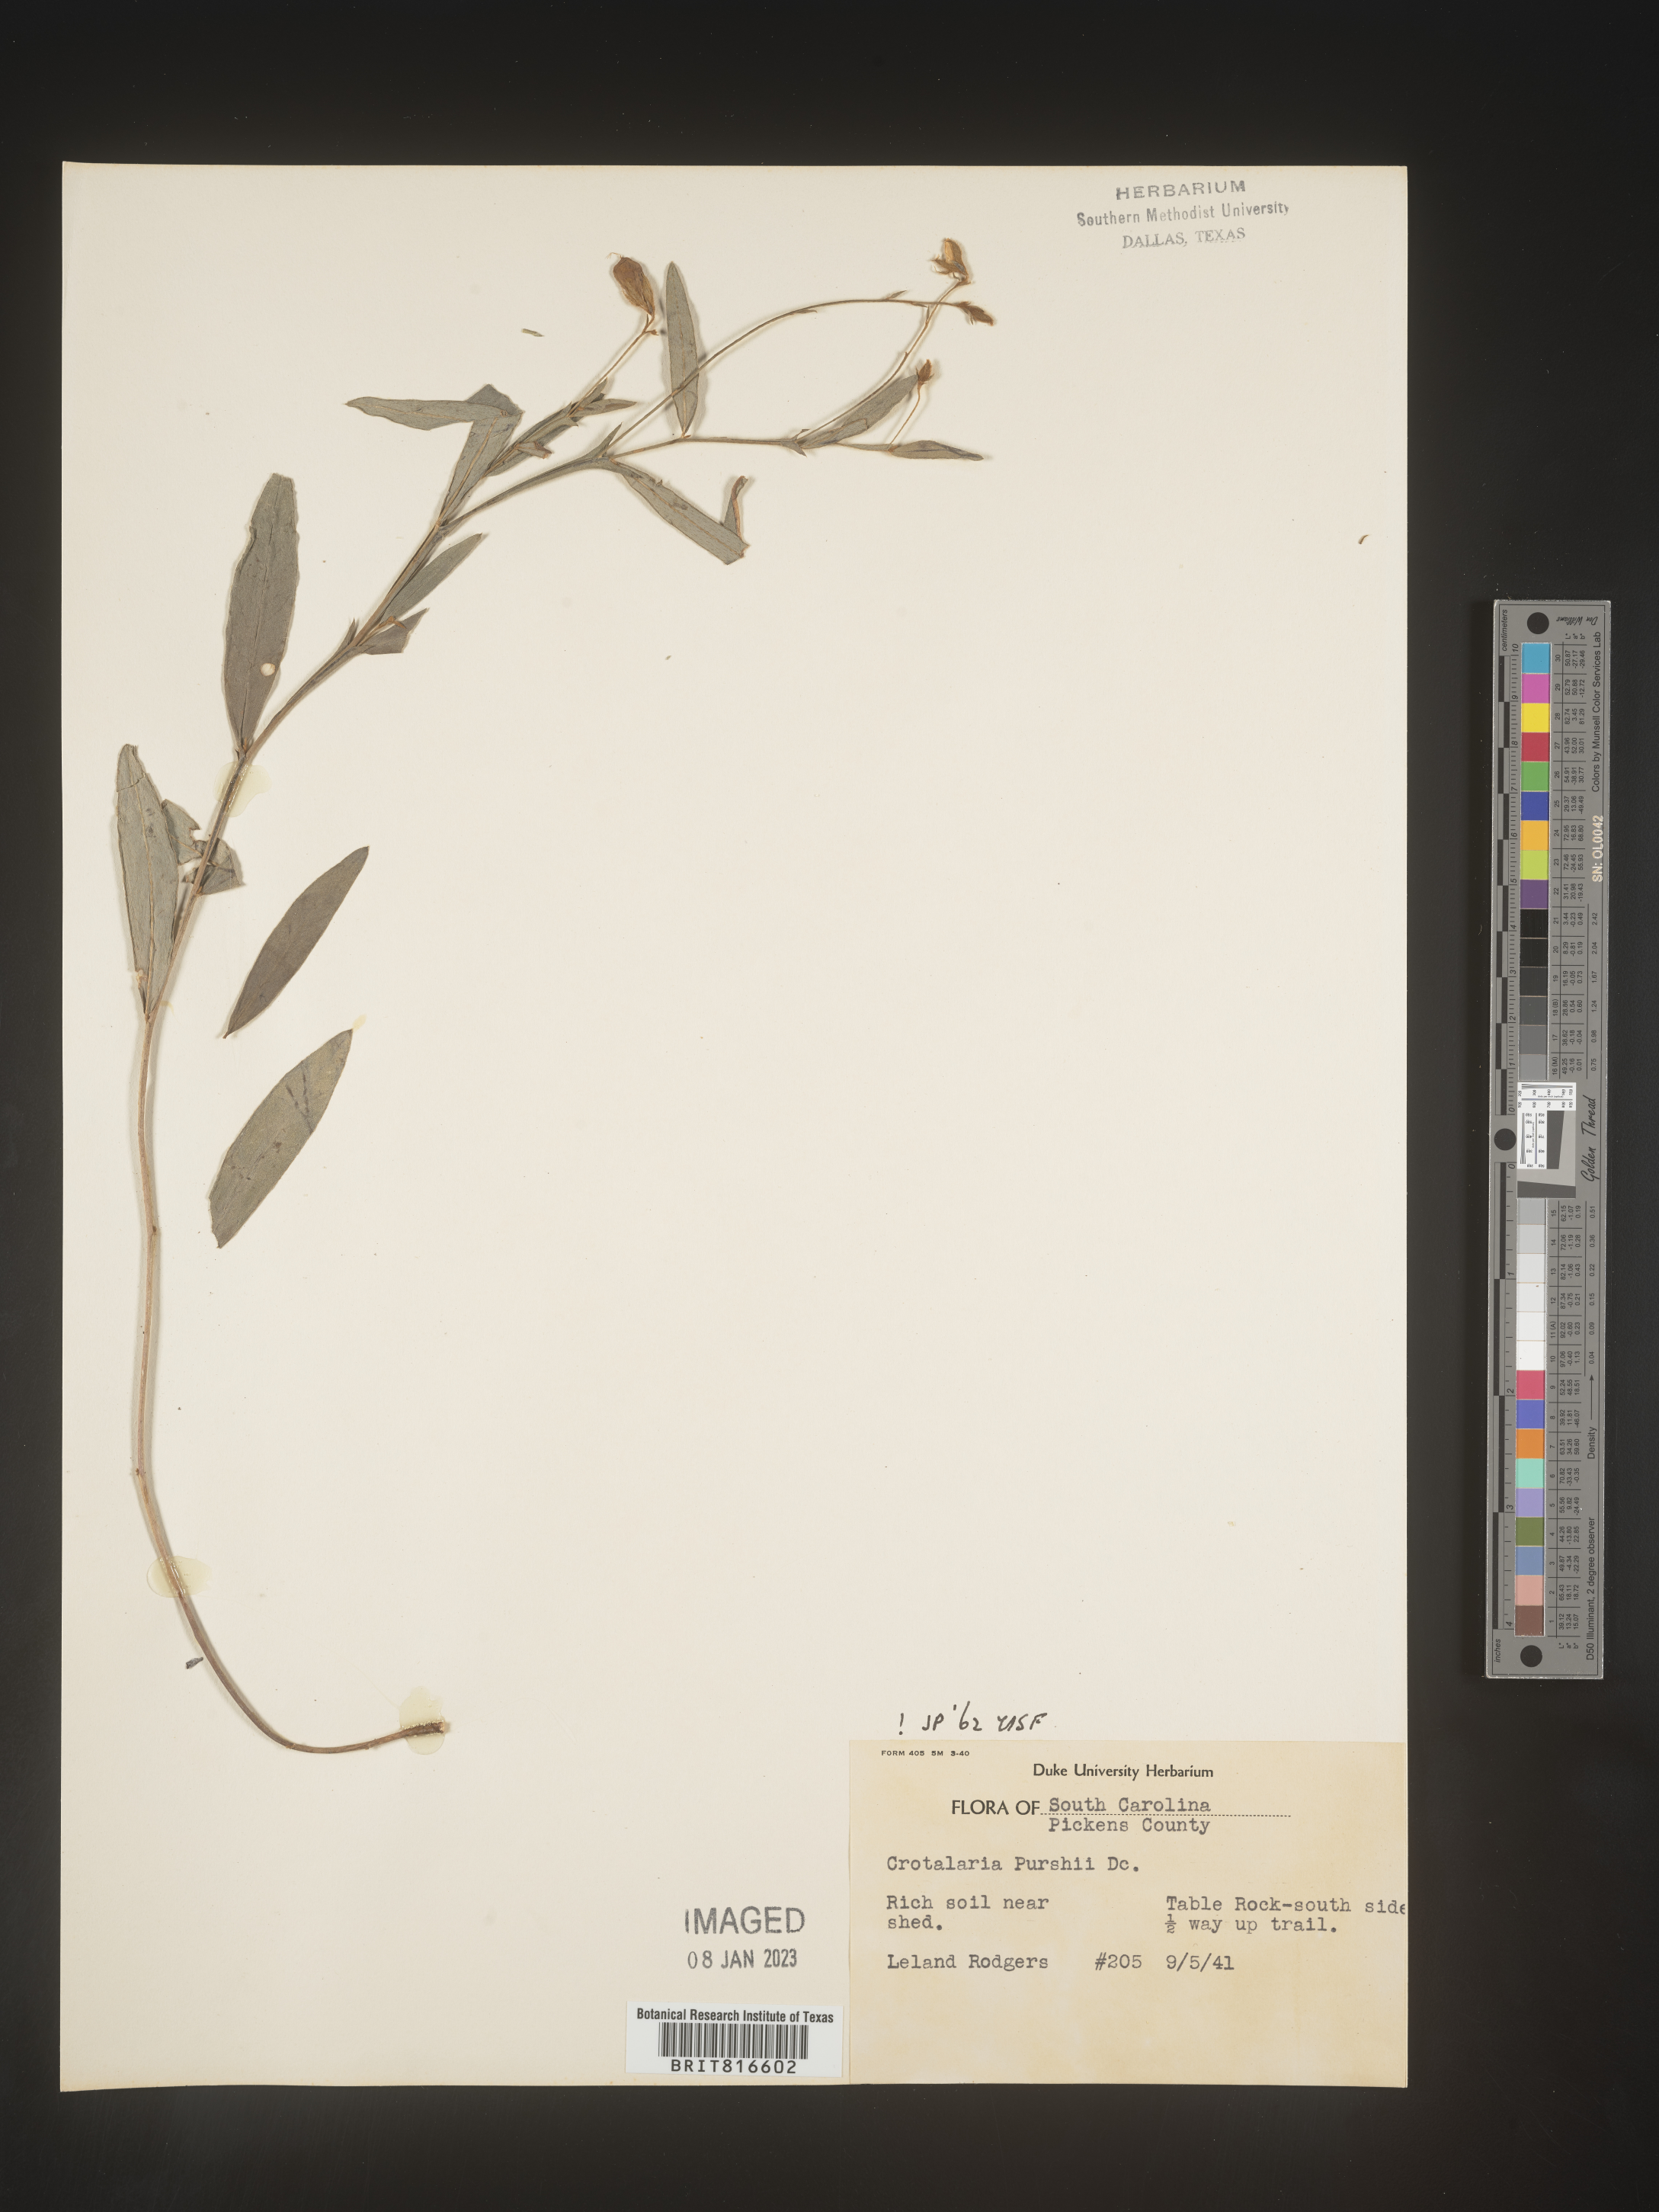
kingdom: Plantae
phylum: Tracheophyta
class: Magnoliopsida
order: Fabales
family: Fabaceae
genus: Crotalaria
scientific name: Crotalaria purshii
